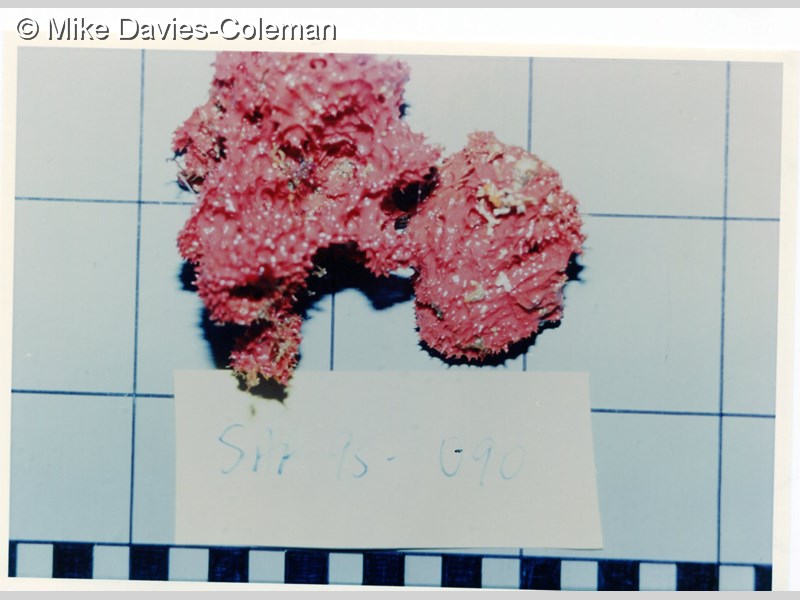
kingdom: Animalia
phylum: Porifera
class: Demospongiae
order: Dendroceratida
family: Dictyodendrillidae
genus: Dictyodendrilla
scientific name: Dictyodendrilla
